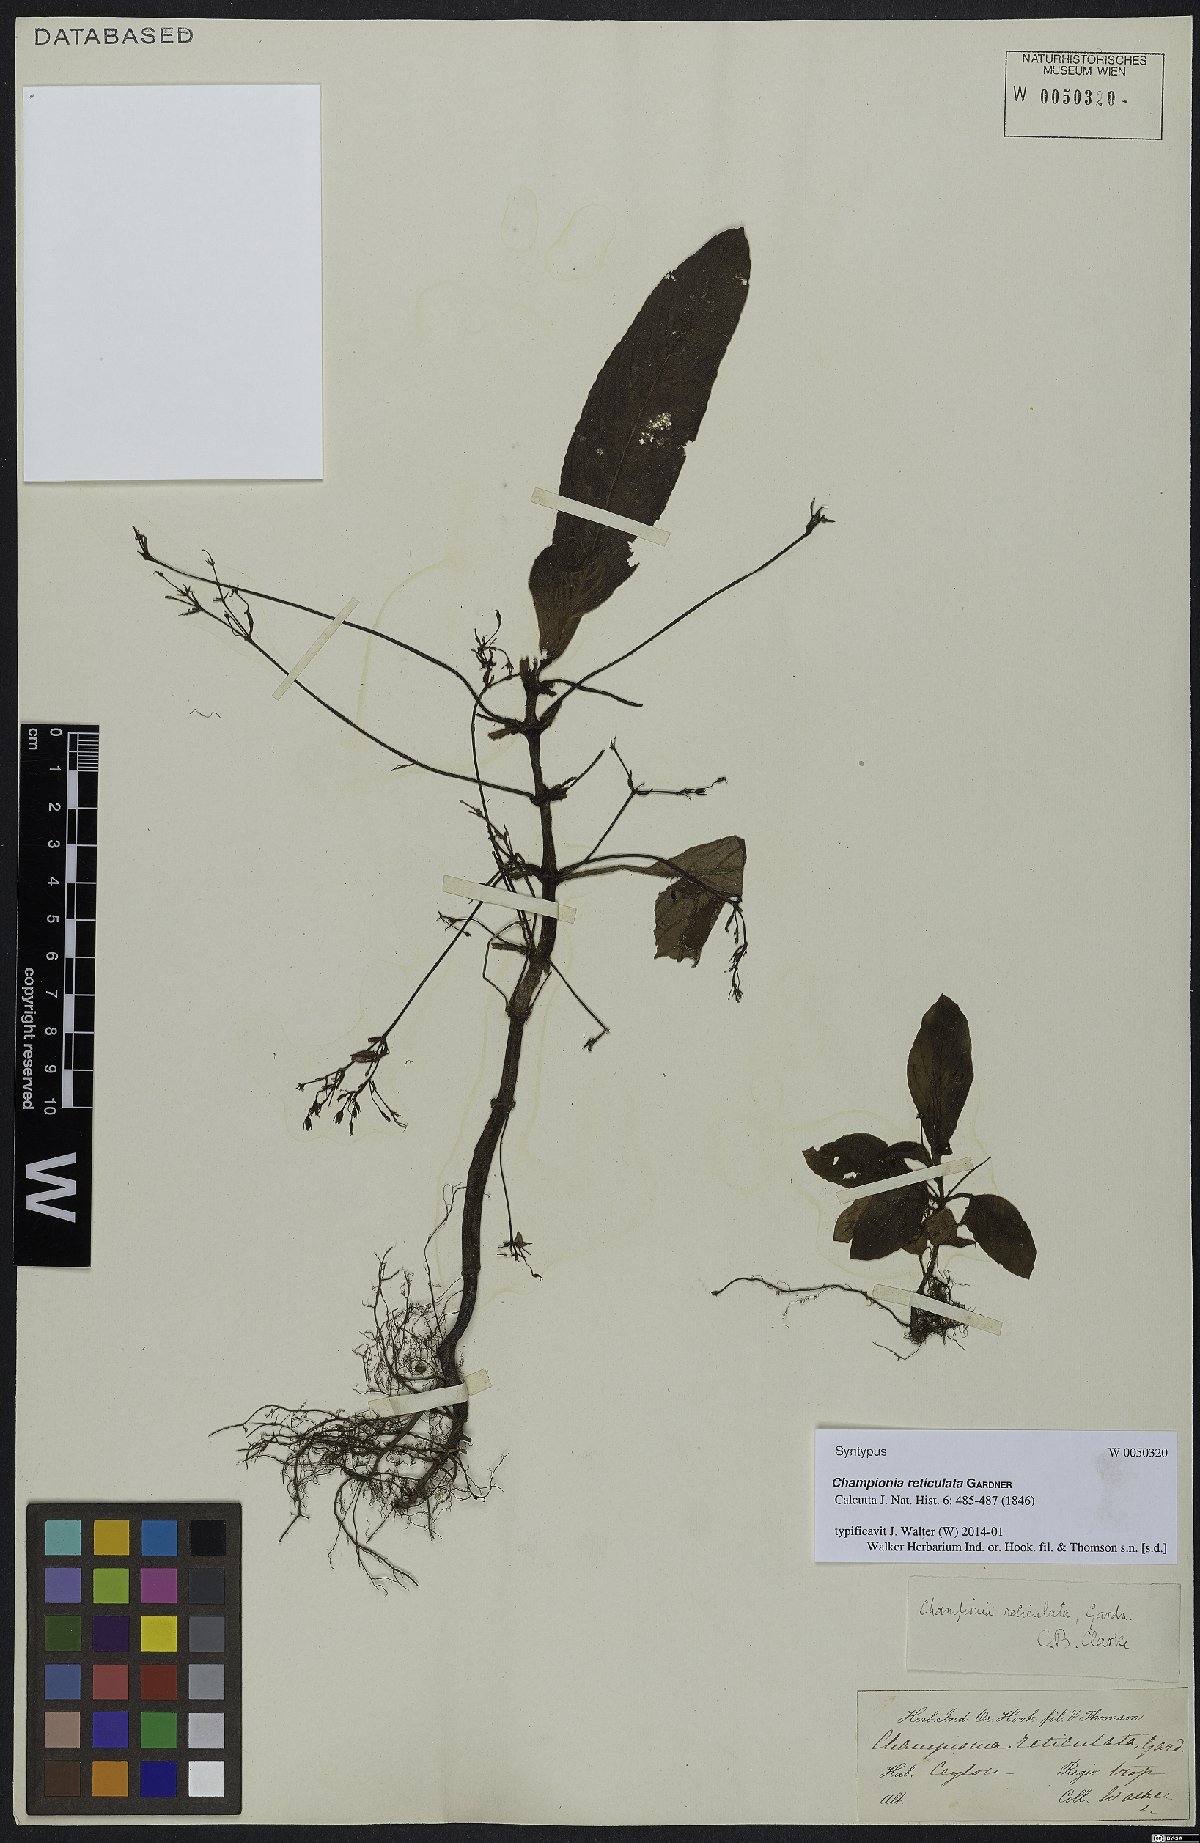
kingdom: Plantae
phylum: Tracheophyta
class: Magnoliopsida
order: Lamiales
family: Gesneriaceae
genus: Championia
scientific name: Championia reticulata
